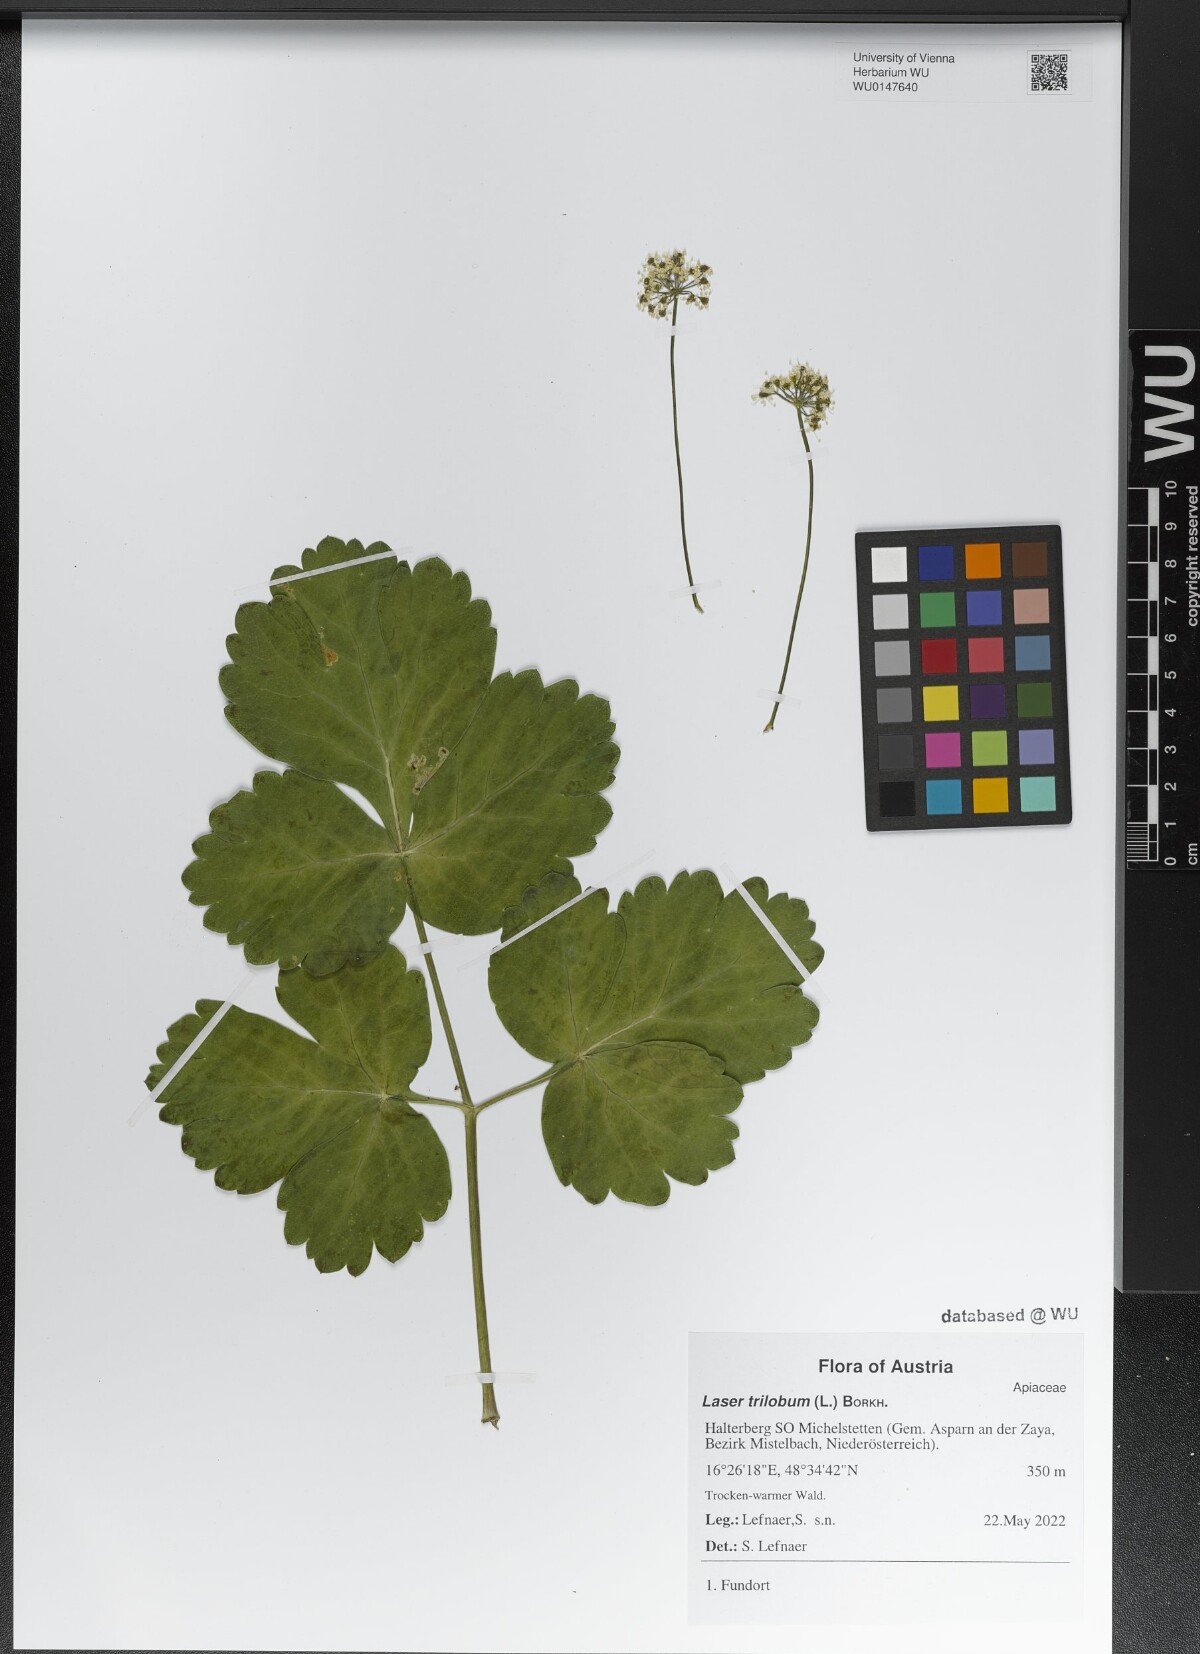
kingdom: Plantae
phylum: Tracheophyta
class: Magnoliopsida
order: Apiales
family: Apiaceae
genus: Laser
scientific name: Laser trilobum
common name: Laser
